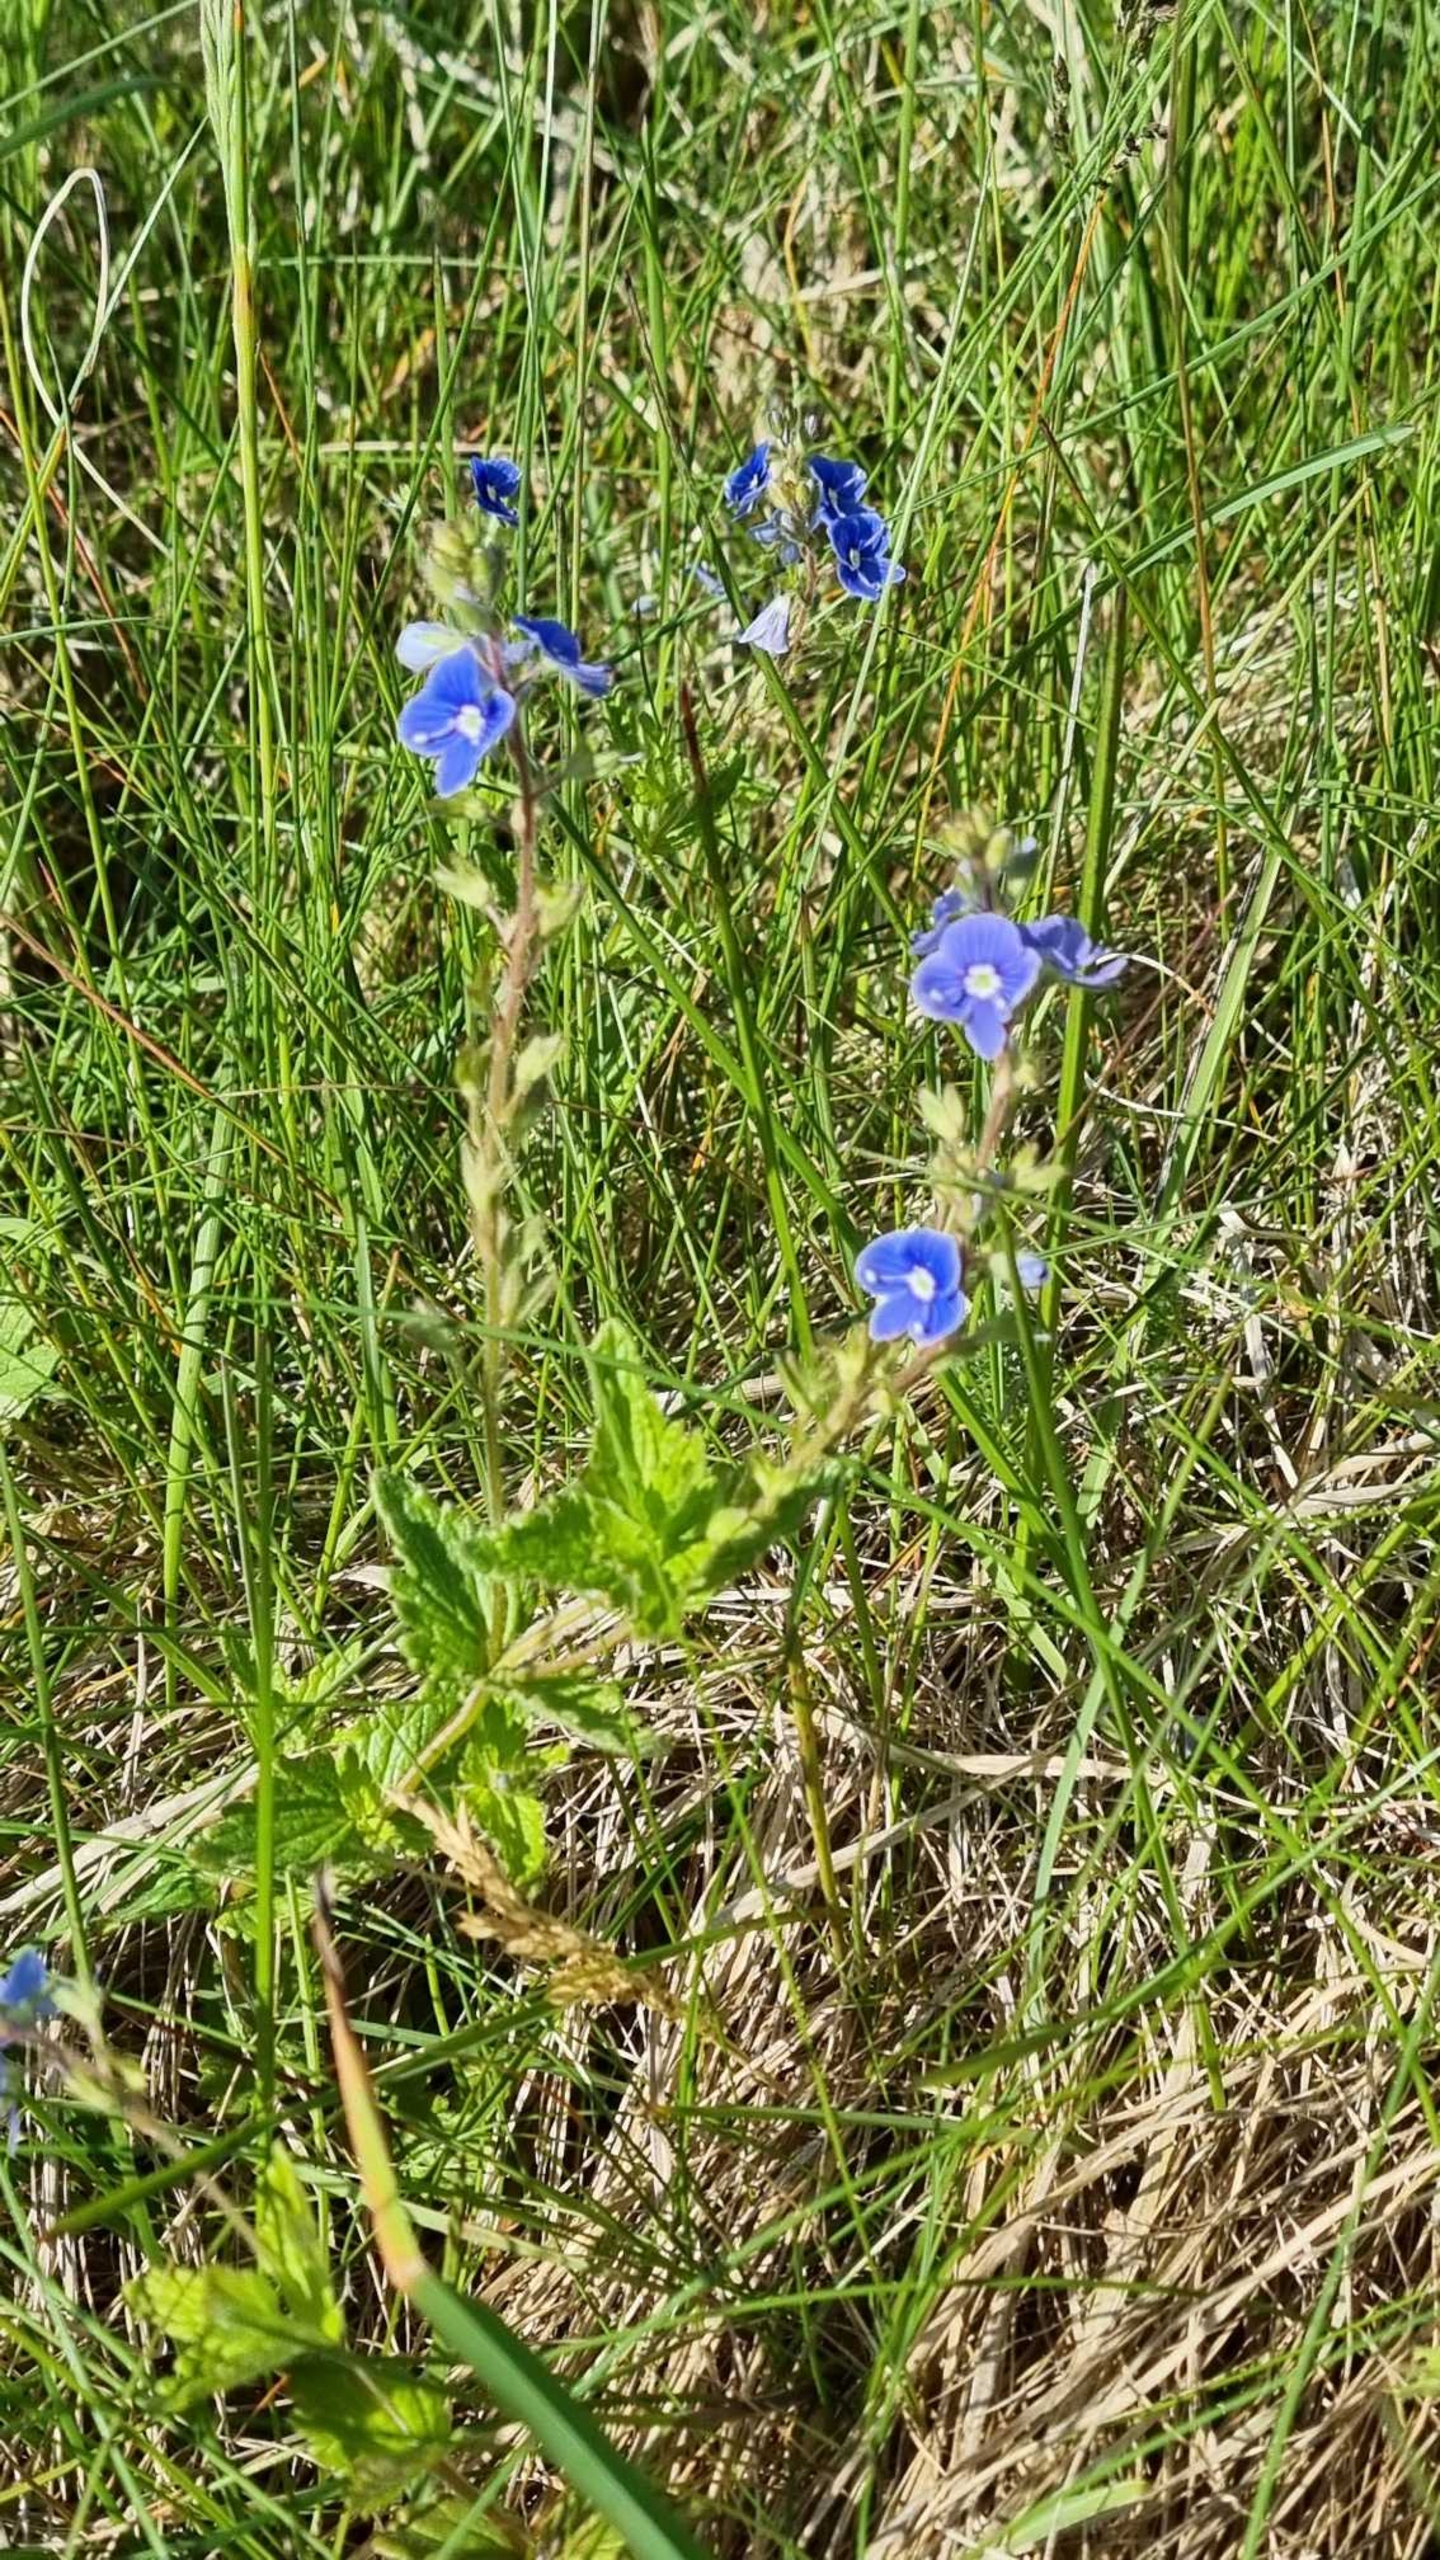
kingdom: Plantae
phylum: Tracheophyta
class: Magnoliopsida
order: Lamiales
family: Plantaginaceae
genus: Veronica
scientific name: Veronica chamaedrys
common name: Tveskægget ærenpris
